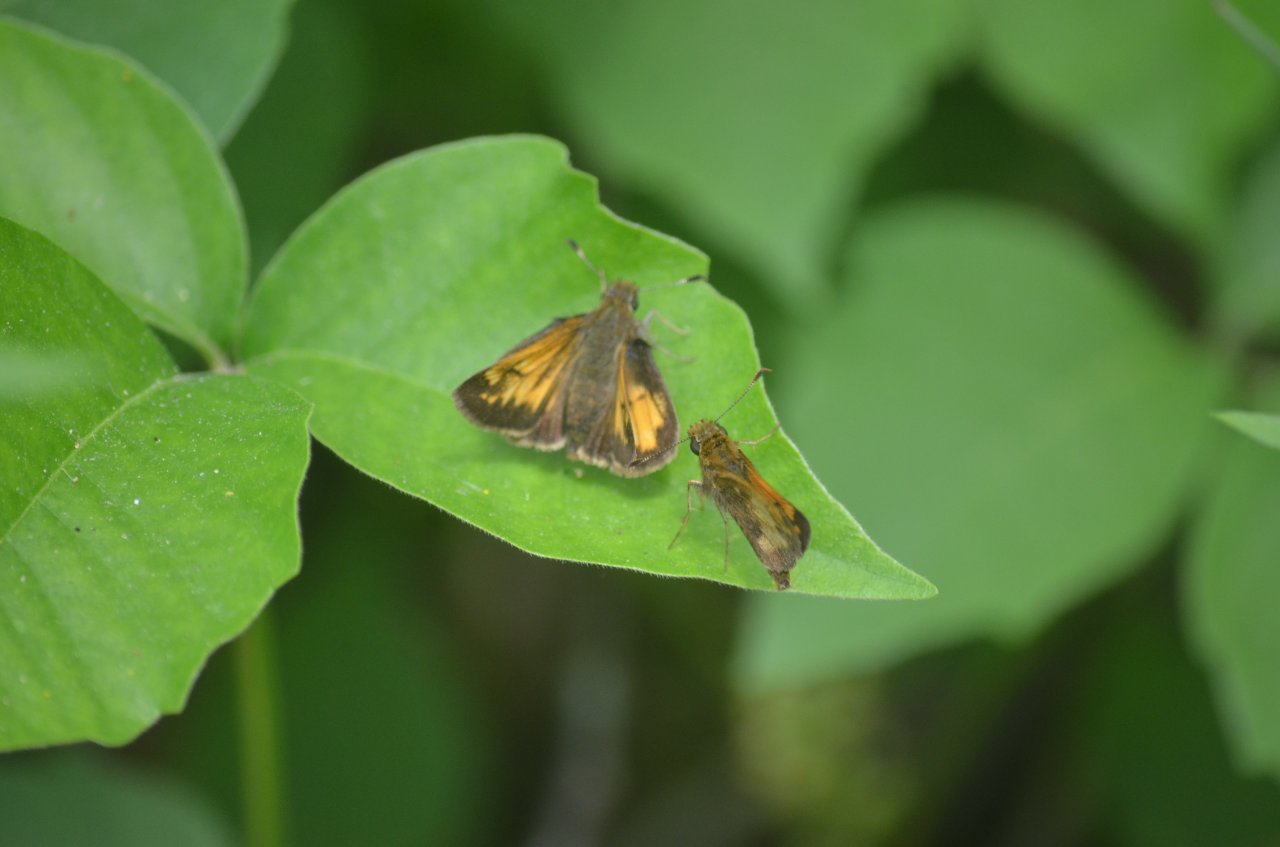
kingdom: Animalia
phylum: Arthropoda
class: Insecta
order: Lepidoptera
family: Hesperiidae
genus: Lon
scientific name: Lon hobomok
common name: Hobomok Skipper
